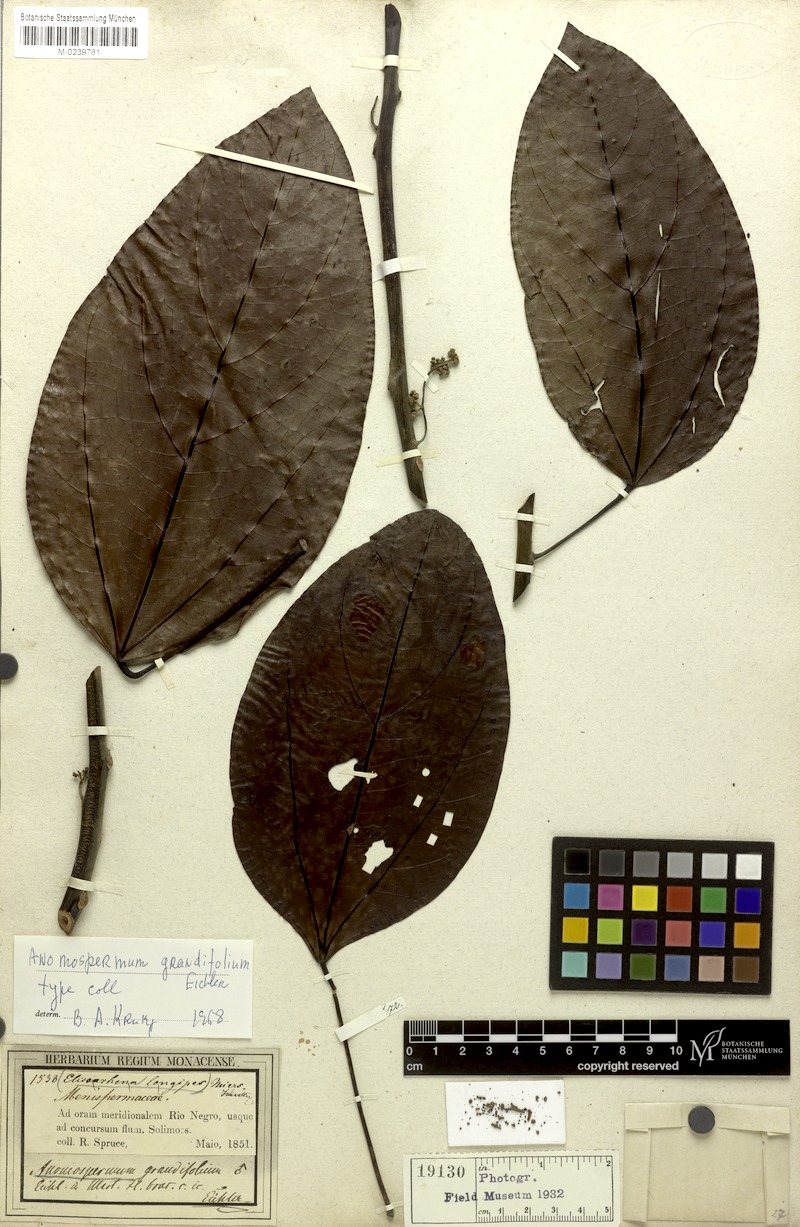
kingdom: Plantae
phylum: Tracheophyta
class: Magnoliopsida
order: Ranunculales
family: Menispermaceae
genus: Elissarrhena
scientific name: Elissarrhena longipes
